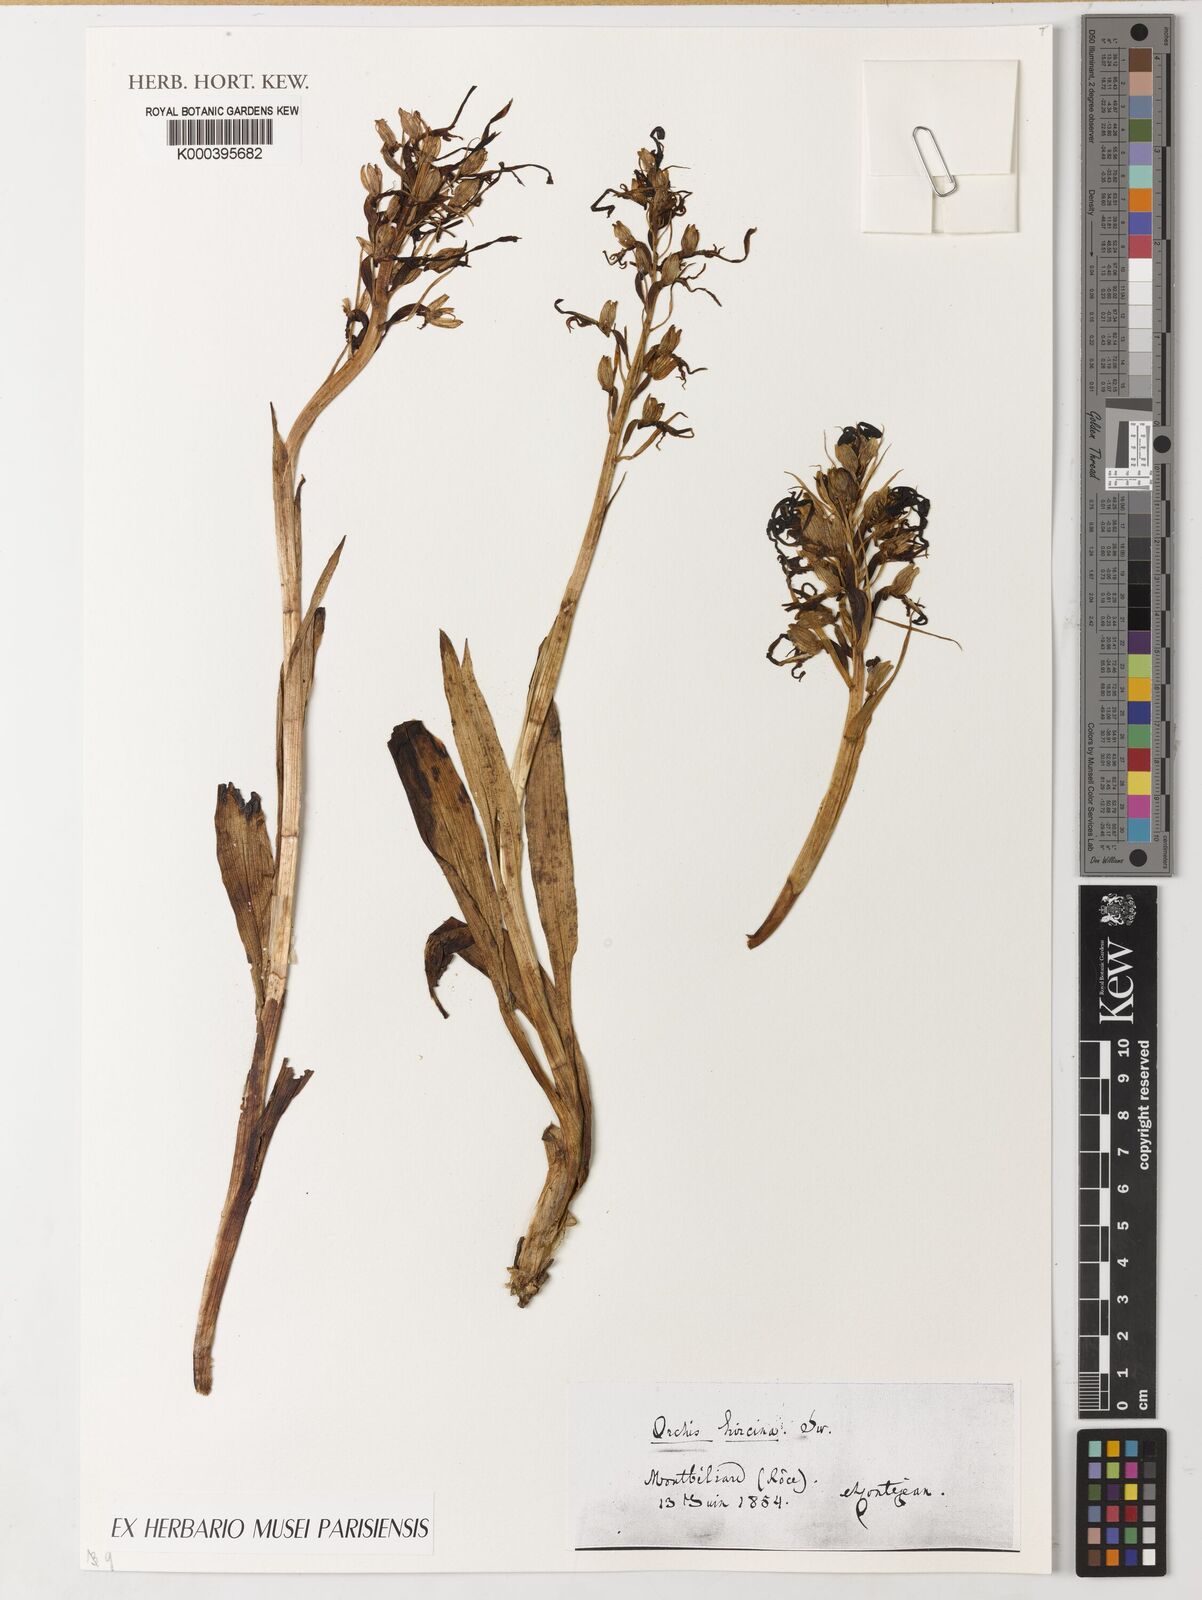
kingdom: Plantae
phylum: Tracheophyta
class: Liliopsida
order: Asparagales
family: Orchidaceae
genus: Himantoglossum
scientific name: Himantoglossum hircinum
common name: Lizard orchid
